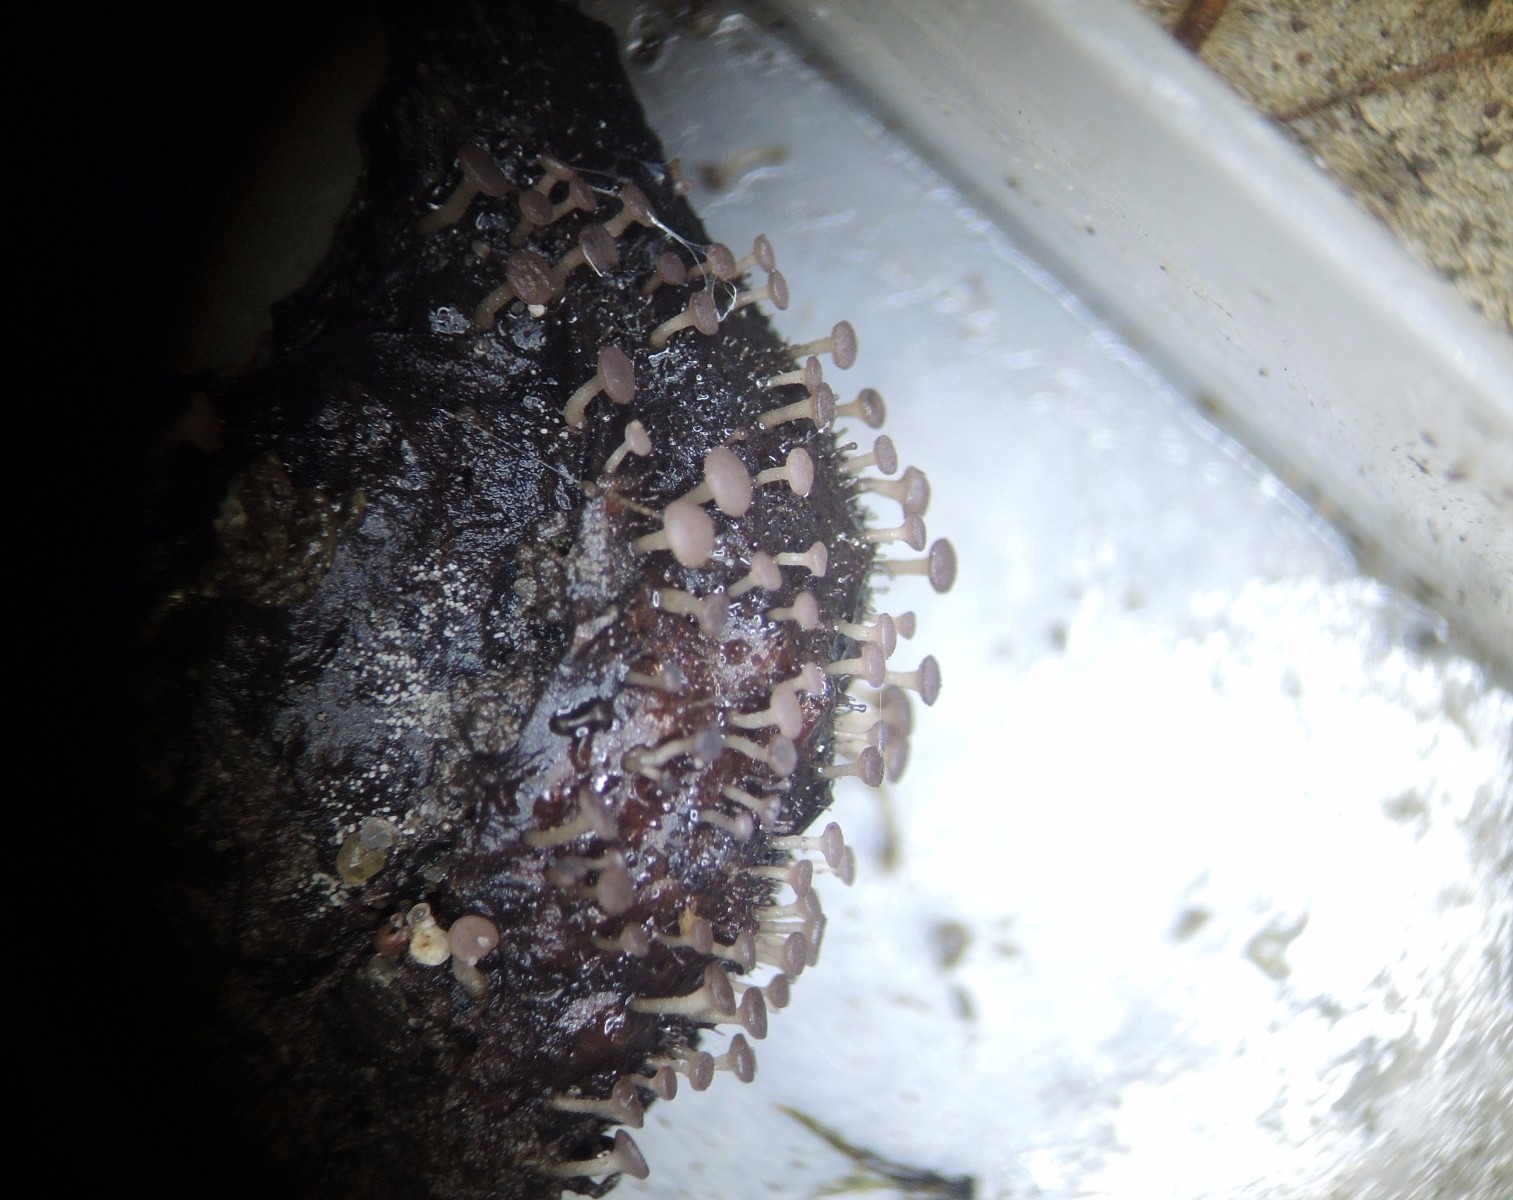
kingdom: Fungi
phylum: Ascomycota
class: Leotiomycetes
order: Helotiales
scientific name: Helotiales
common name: stilkskiveordenen
